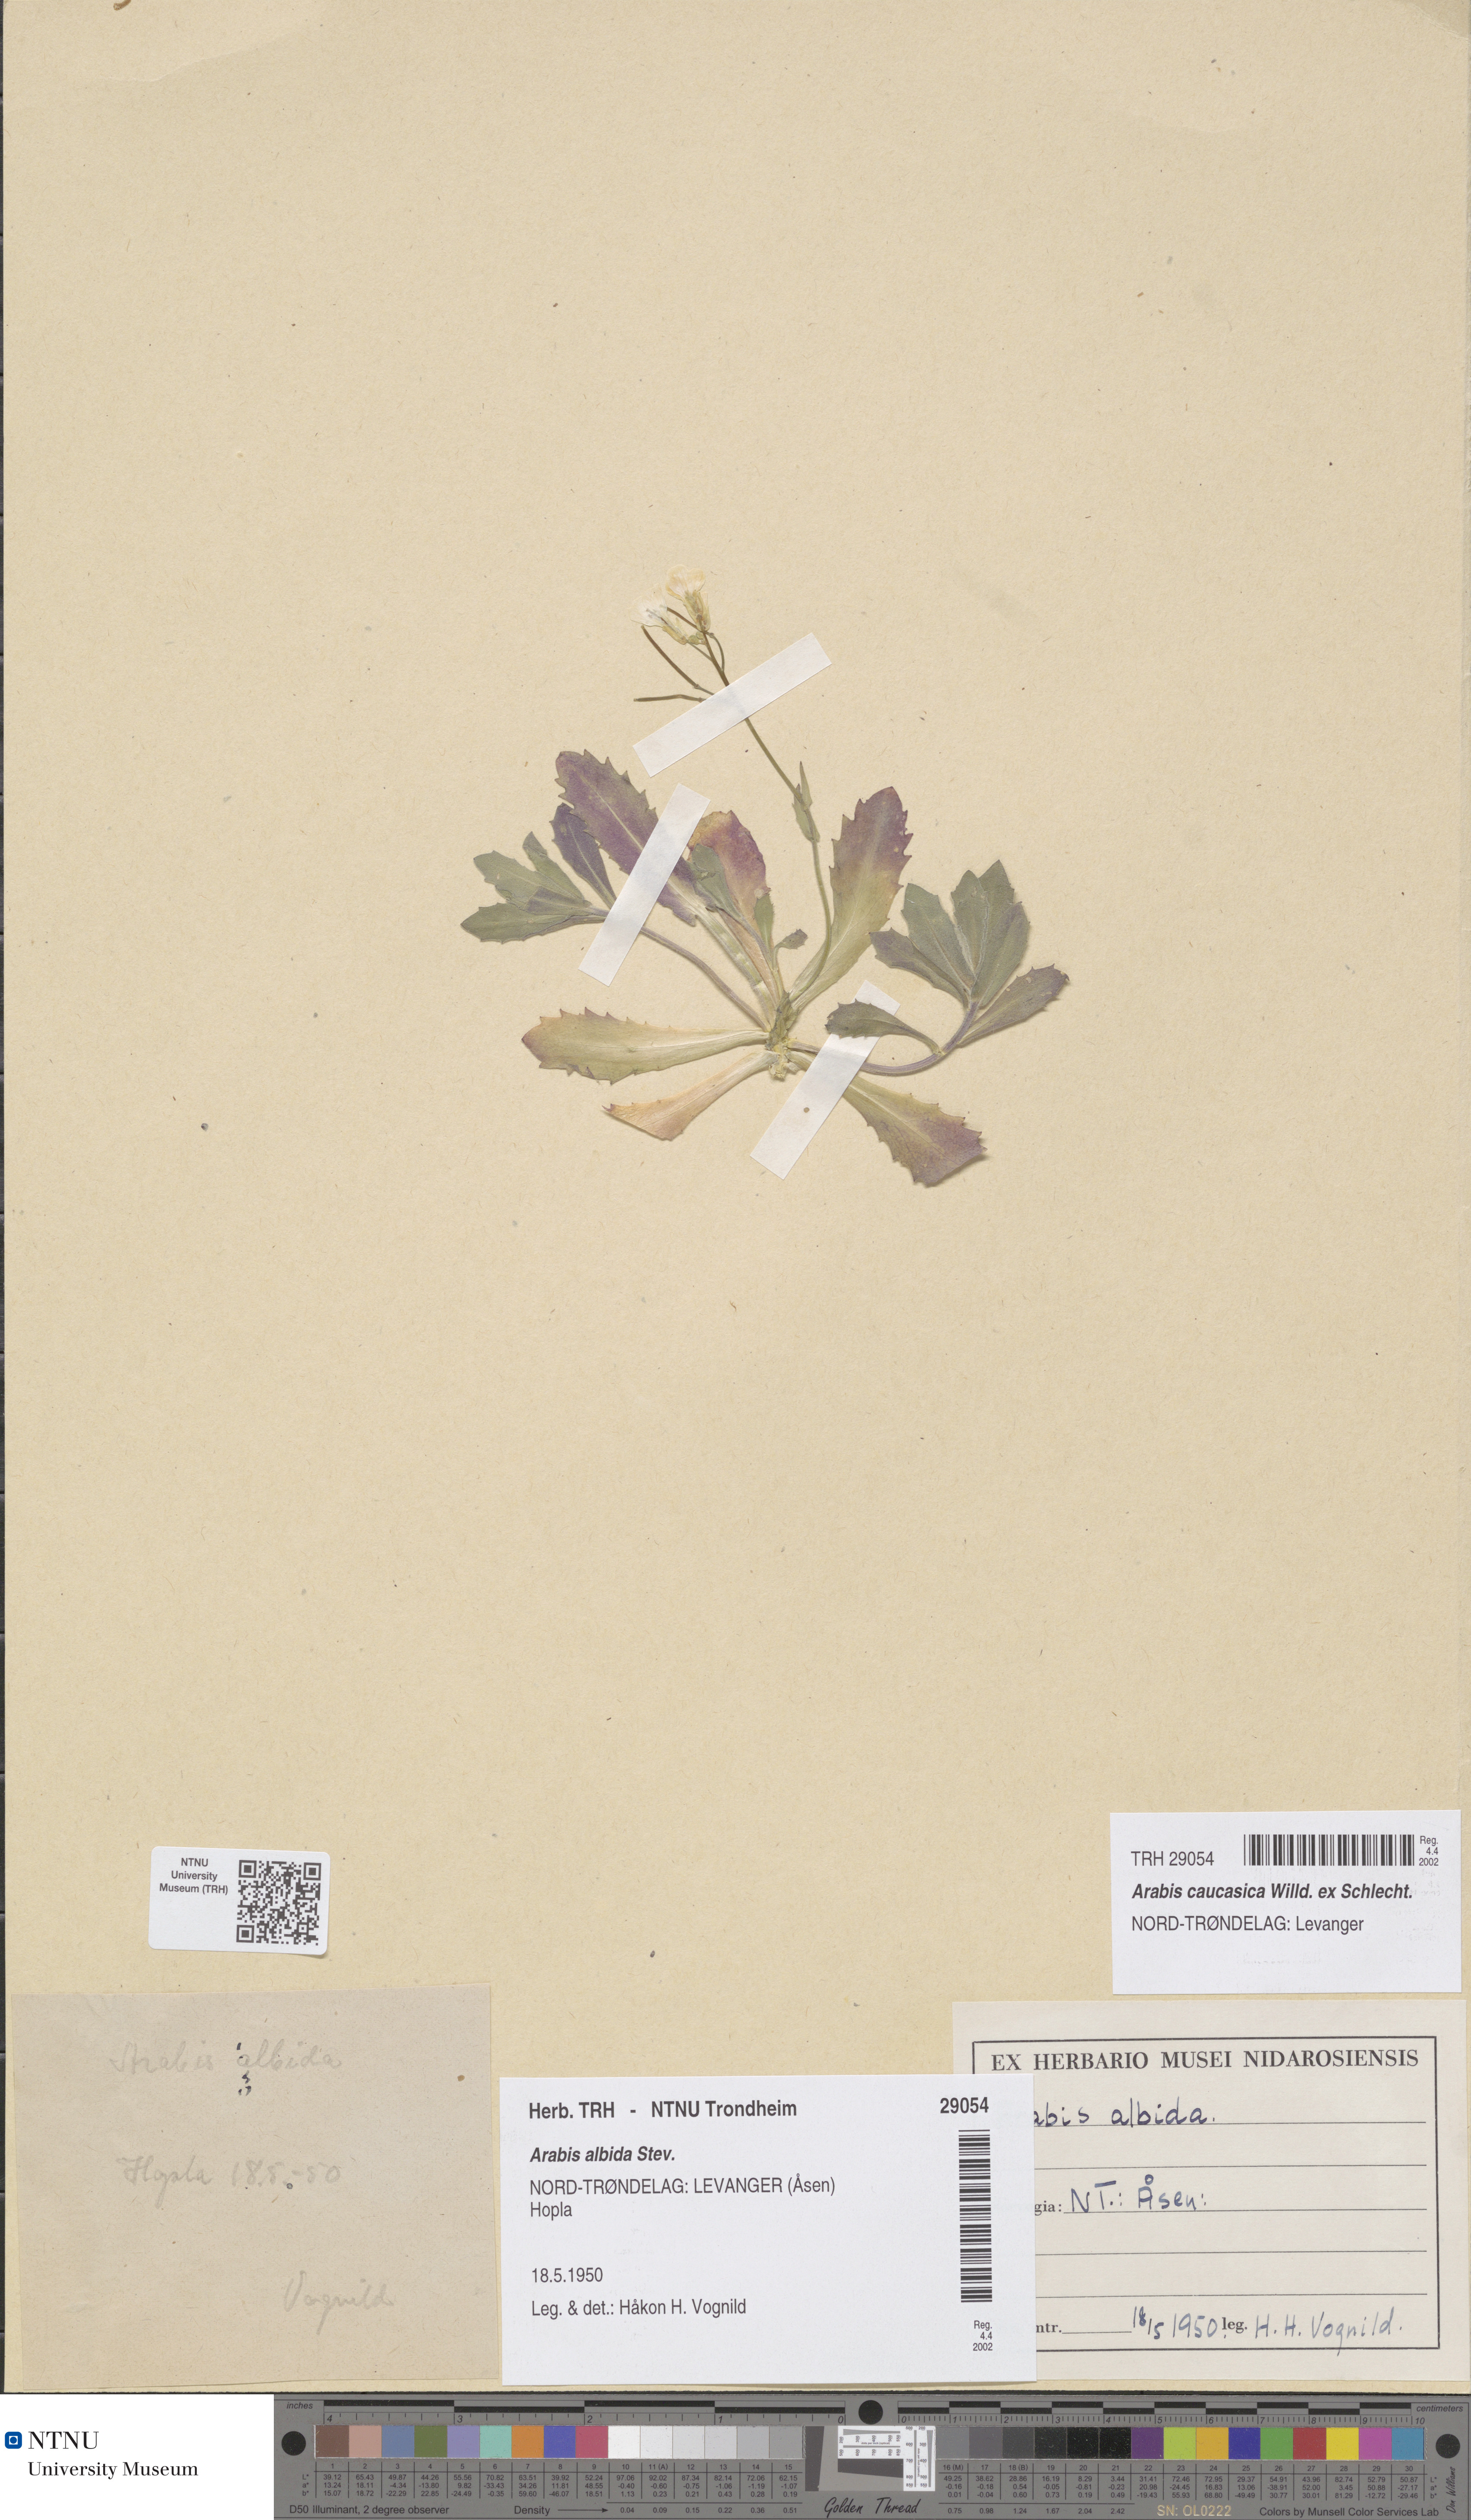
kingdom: Plantae
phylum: Tracheophyta
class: Magnoliopsida
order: Brassicales
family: Brassicaceae
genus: Arabis
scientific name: Arabis caucasica
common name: Gray rockcress
